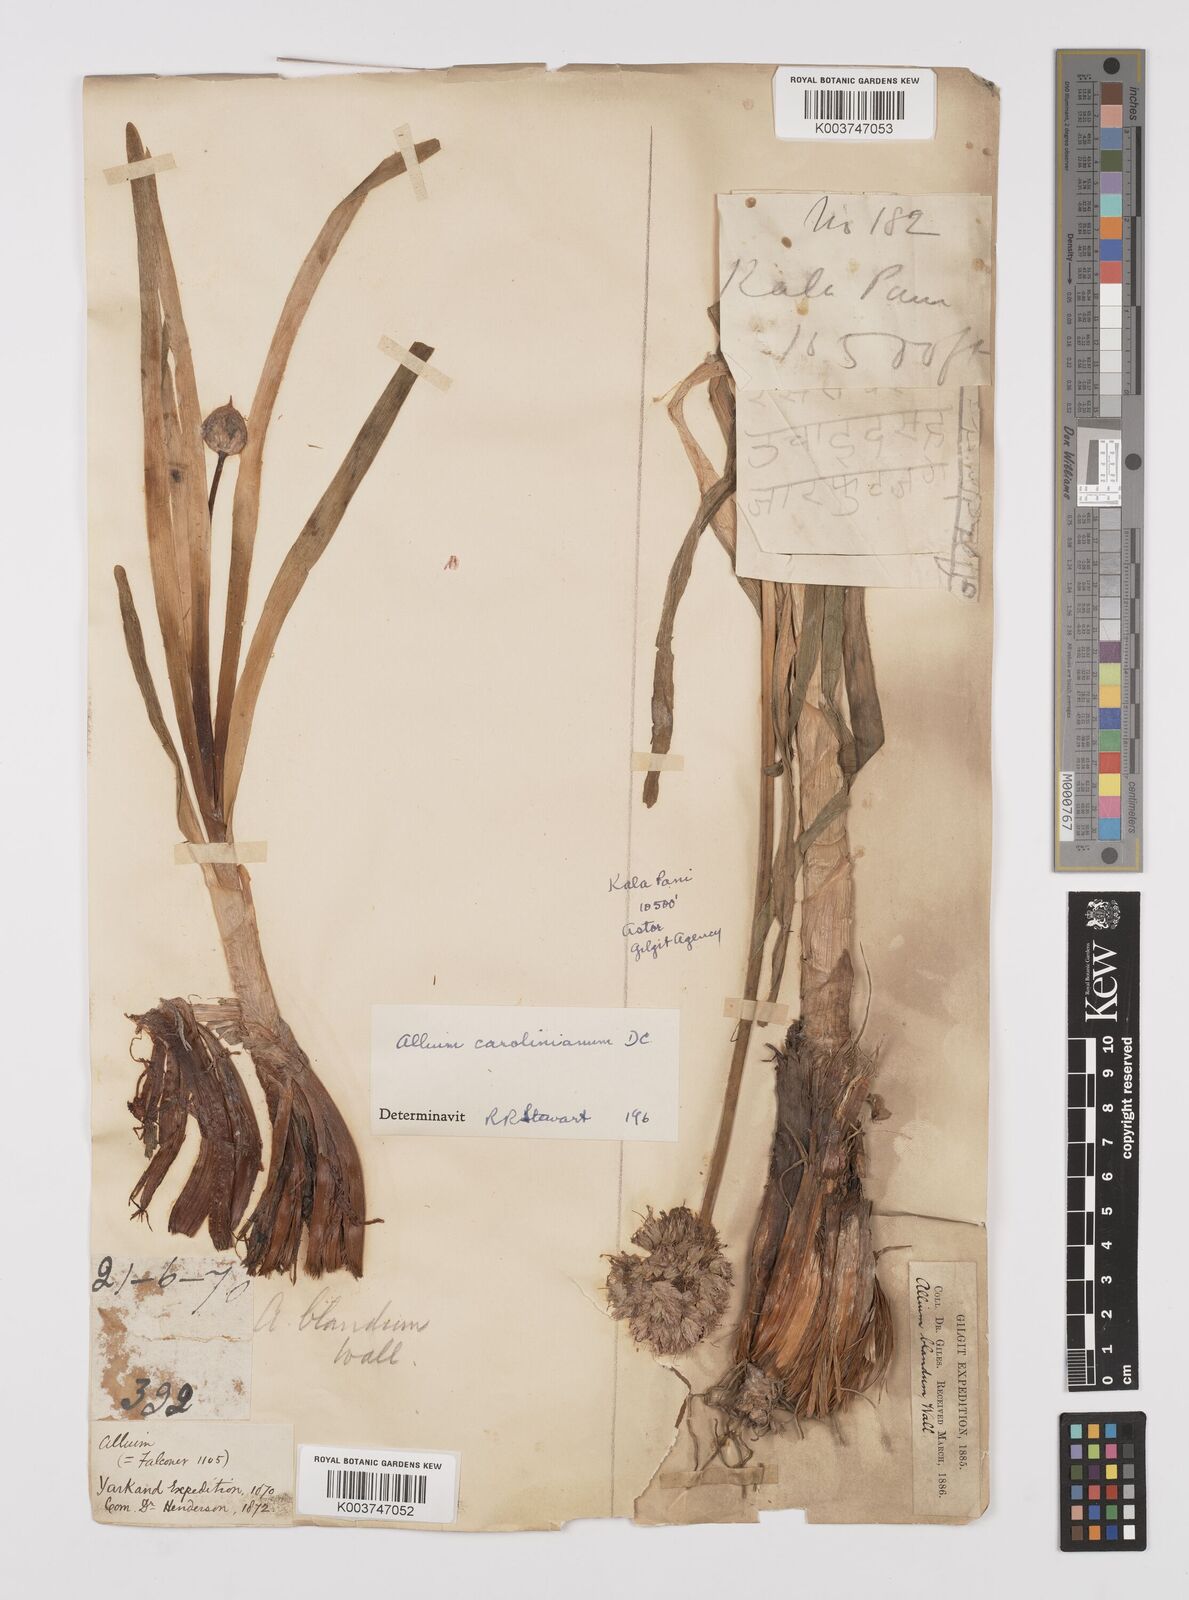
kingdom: Plantae
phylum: Tracheophyta
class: Liliopsida
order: Asparagales
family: Amaryllidaceae
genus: Allium
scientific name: Allium blandum
